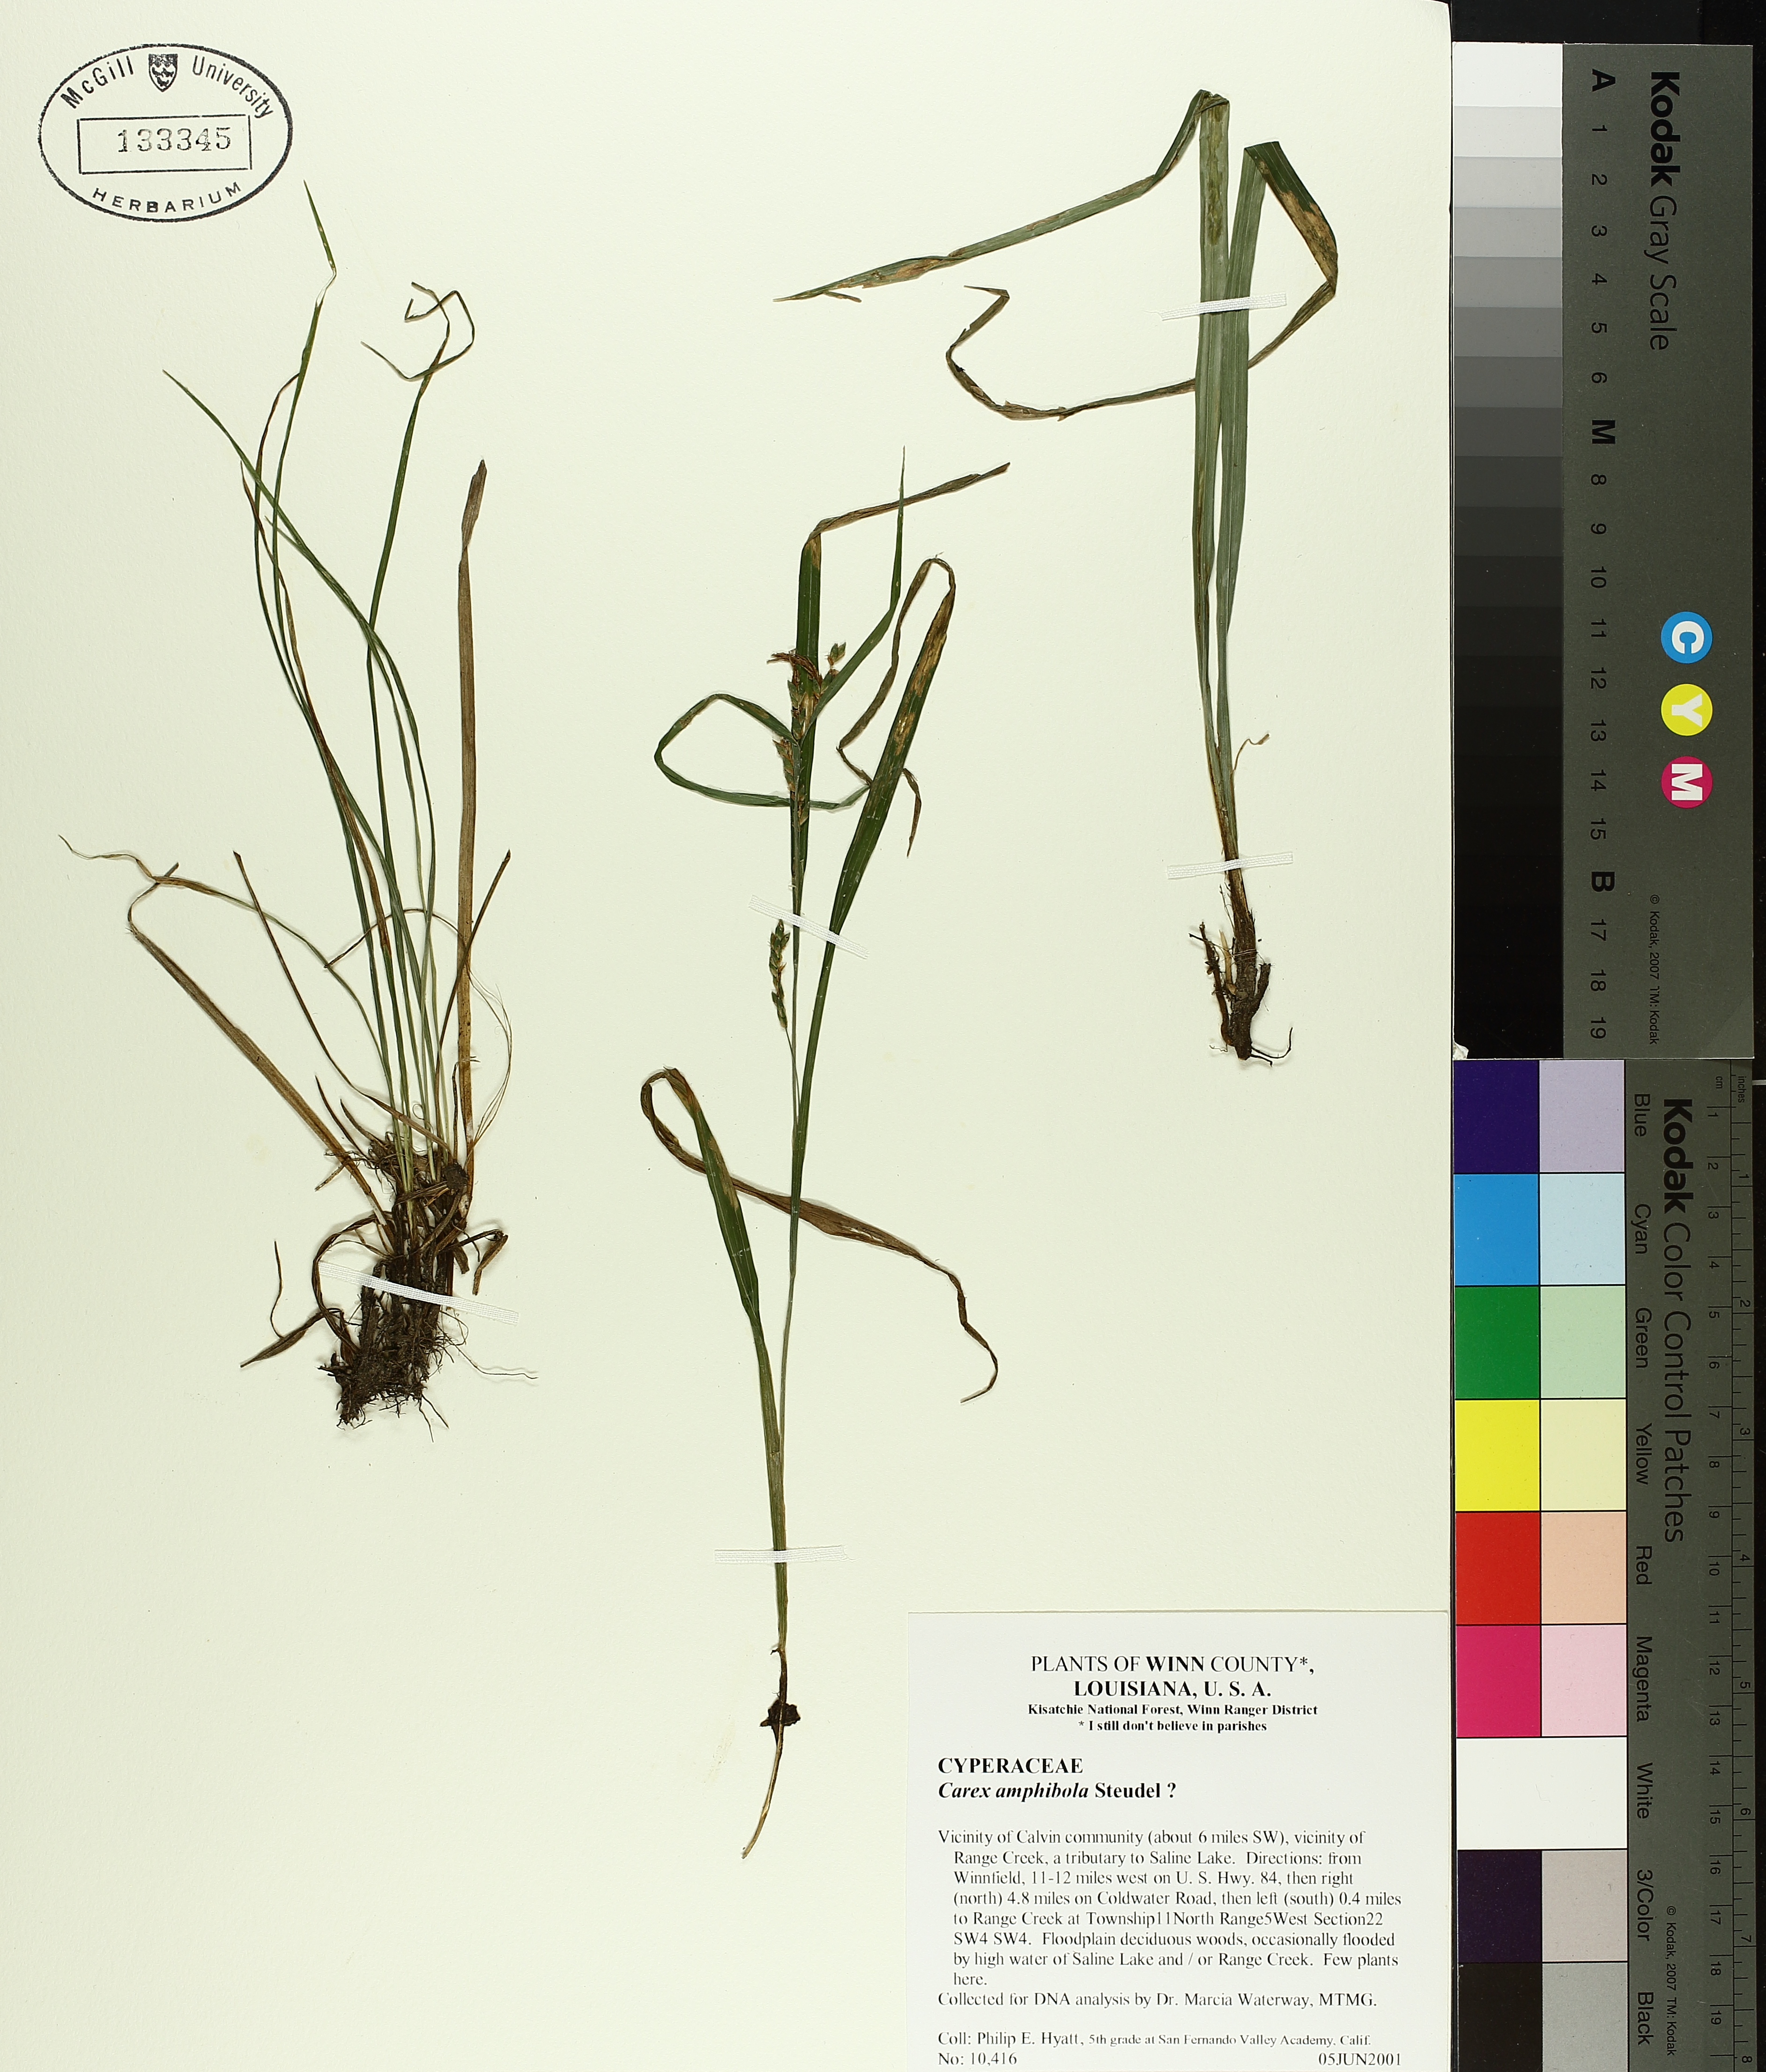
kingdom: Plantae
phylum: Tracheophyta
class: Liliopsida
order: Poales
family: Cyperaceae
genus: Carex
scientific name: Carex amphibola
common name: Amphibious sedge
